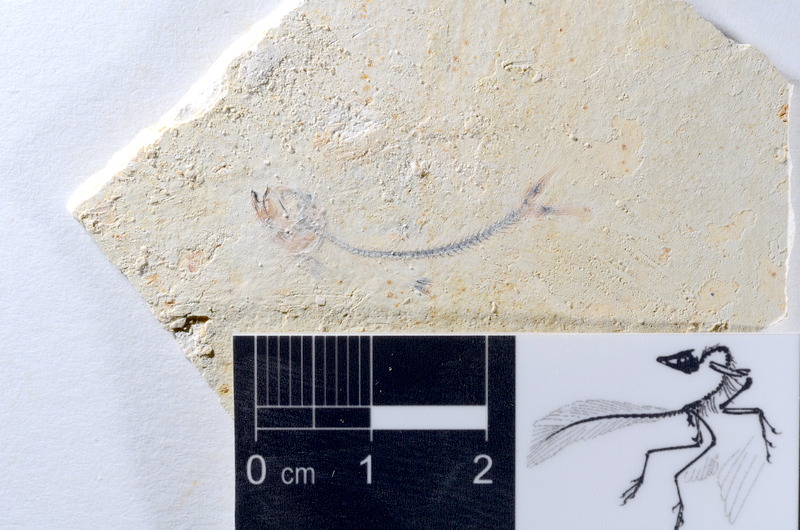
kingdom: Animalia
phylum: Chordata
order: Salmoniformes
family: Orthogonikleithridae
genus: Orthogonikleithrus
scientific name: Orthogonikleithrus hoelli
